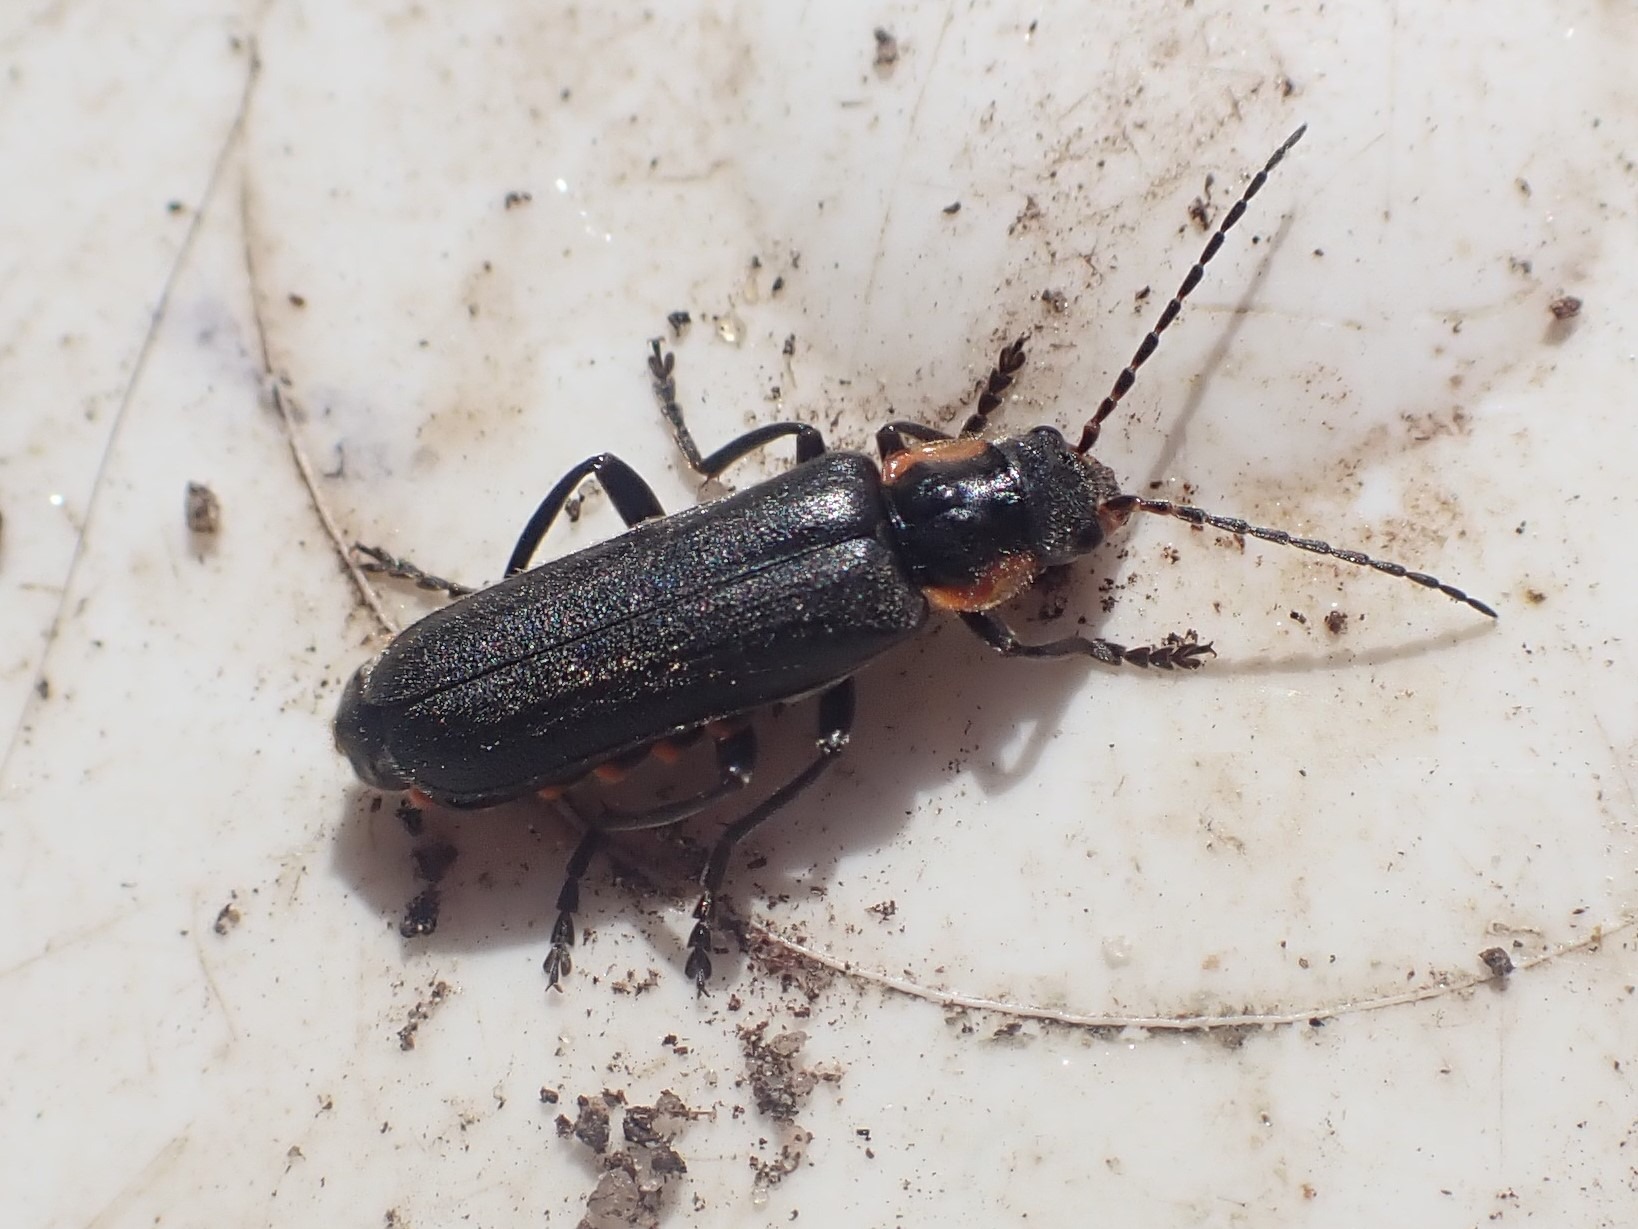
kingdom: Animalia
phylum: Arthropoda
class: Insecta
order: Coleoptera
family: Cantharidae
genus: Cantharis
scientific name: Cantharis obscura
